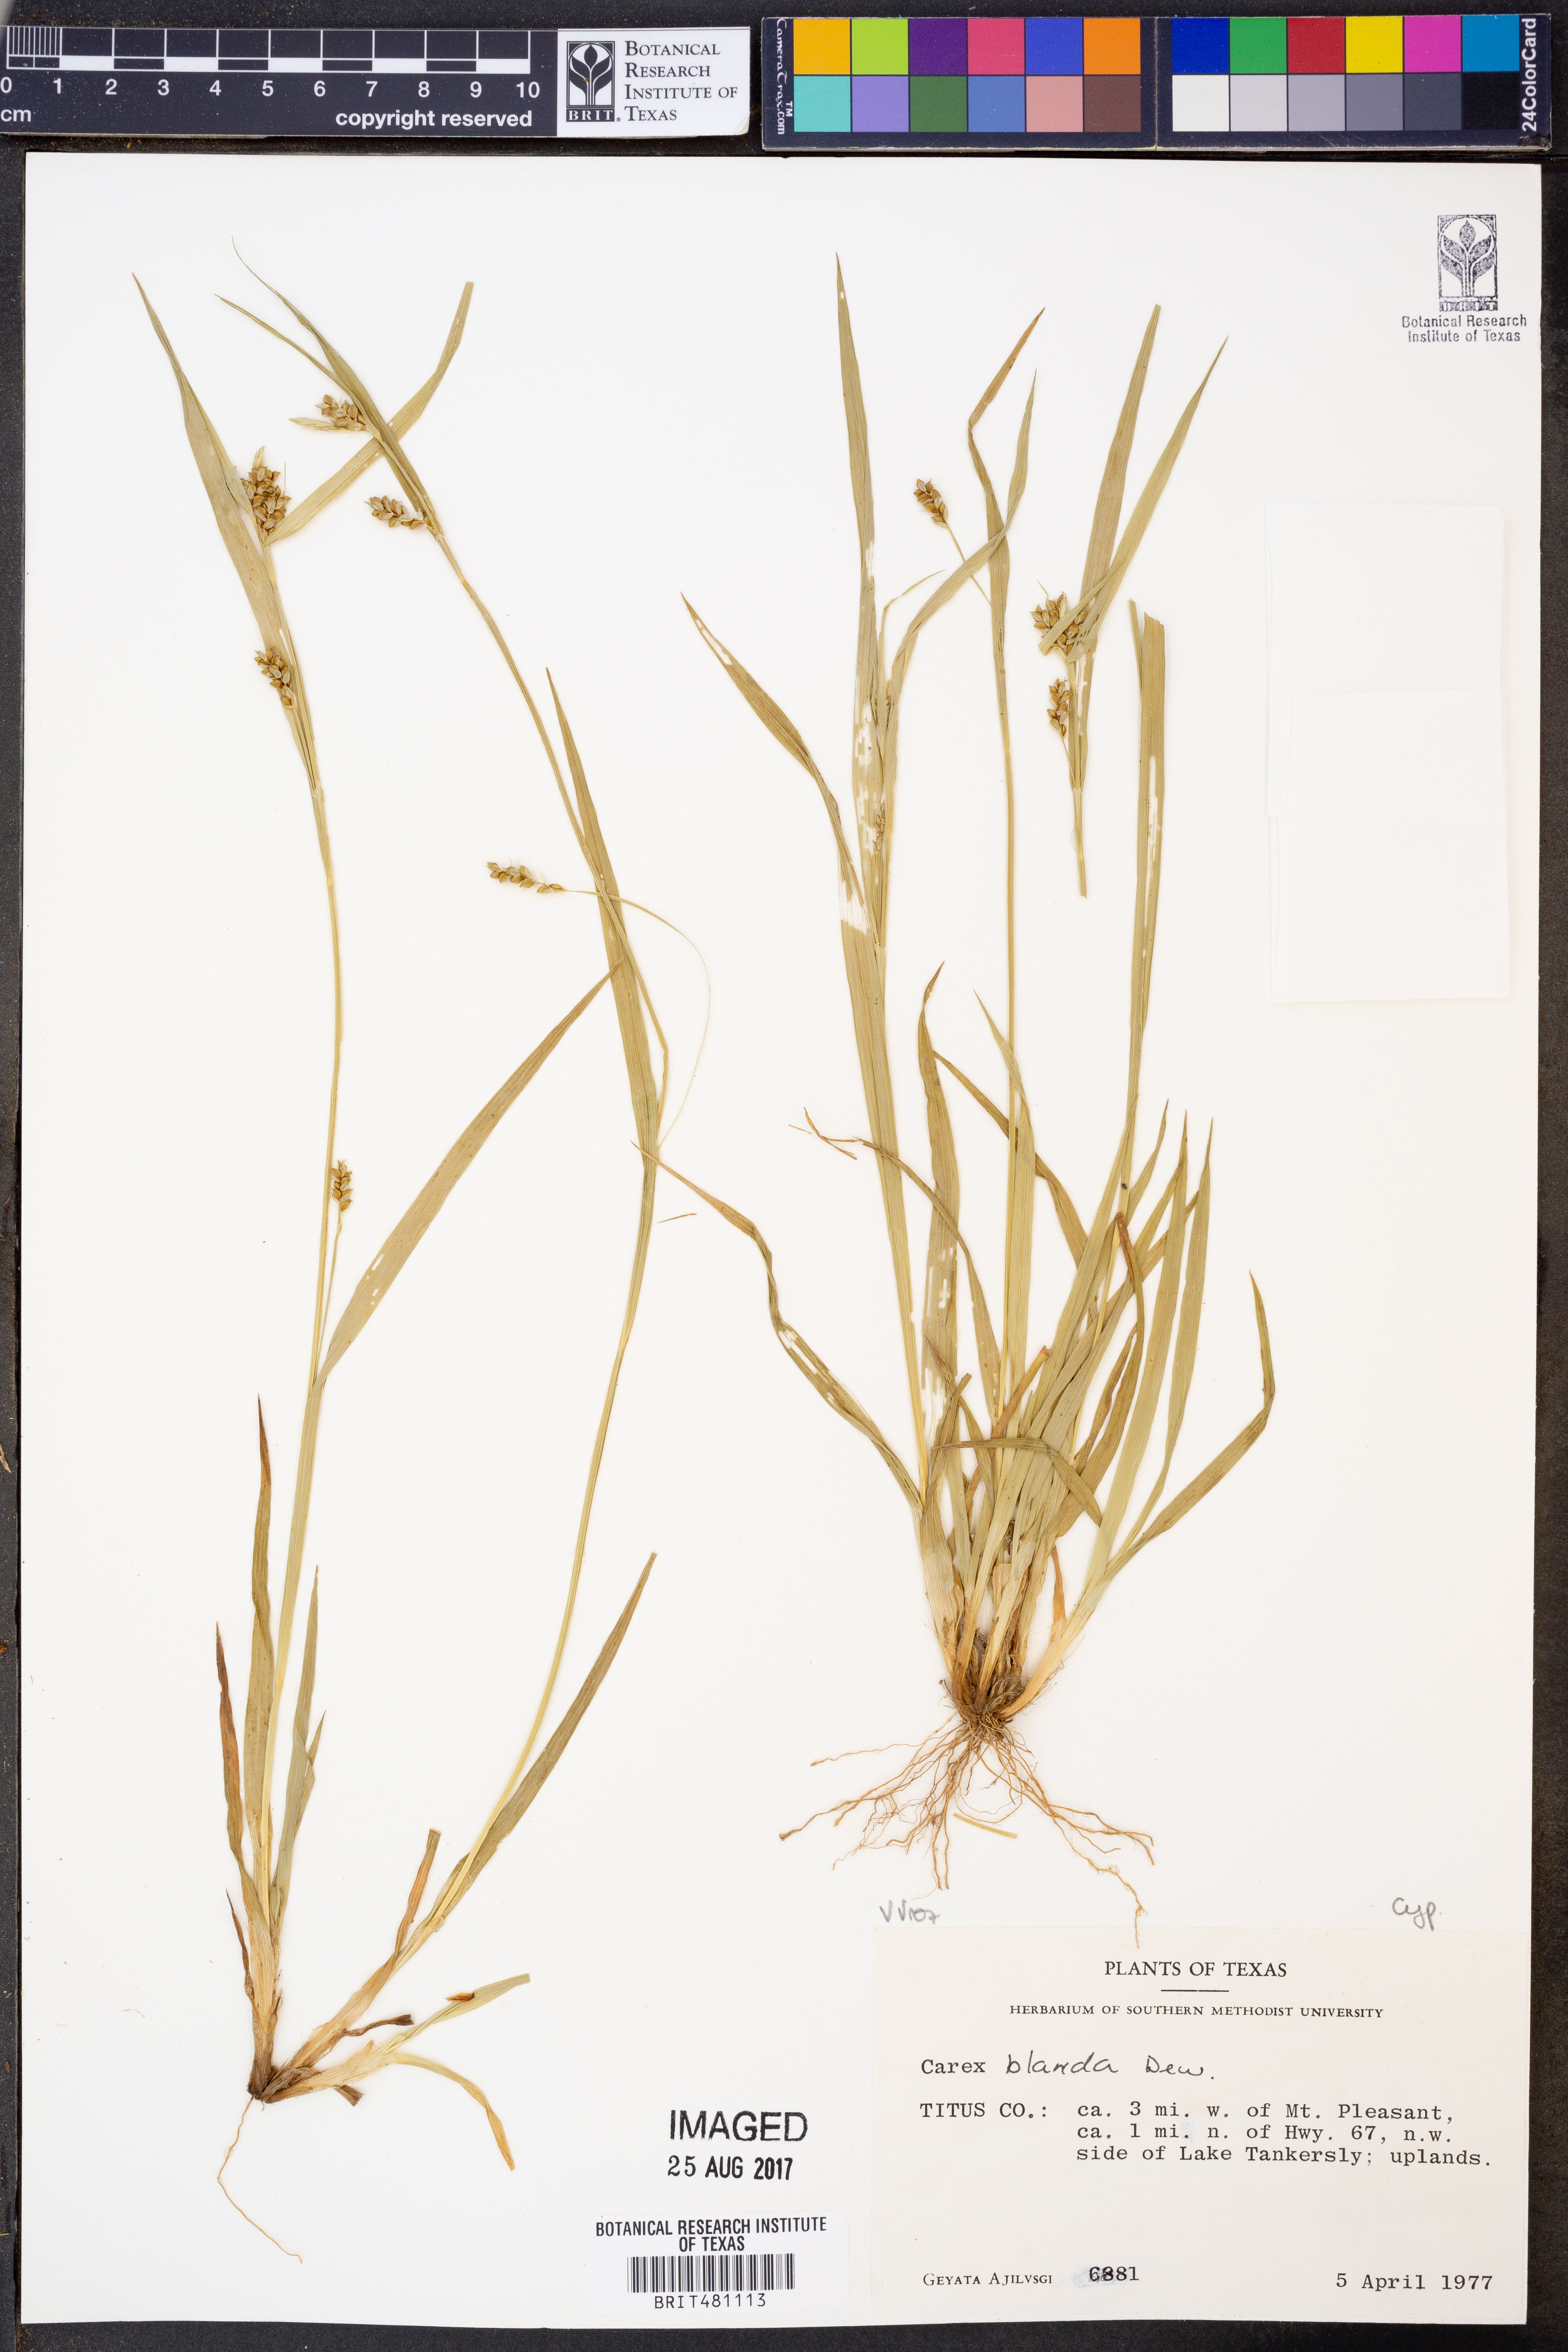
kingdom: Plantae
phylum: Tracheophyta
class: Liliopsida
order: Poales
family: Cyperaceae
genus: Carex
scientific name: Carex blanda
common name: Bland sedge
